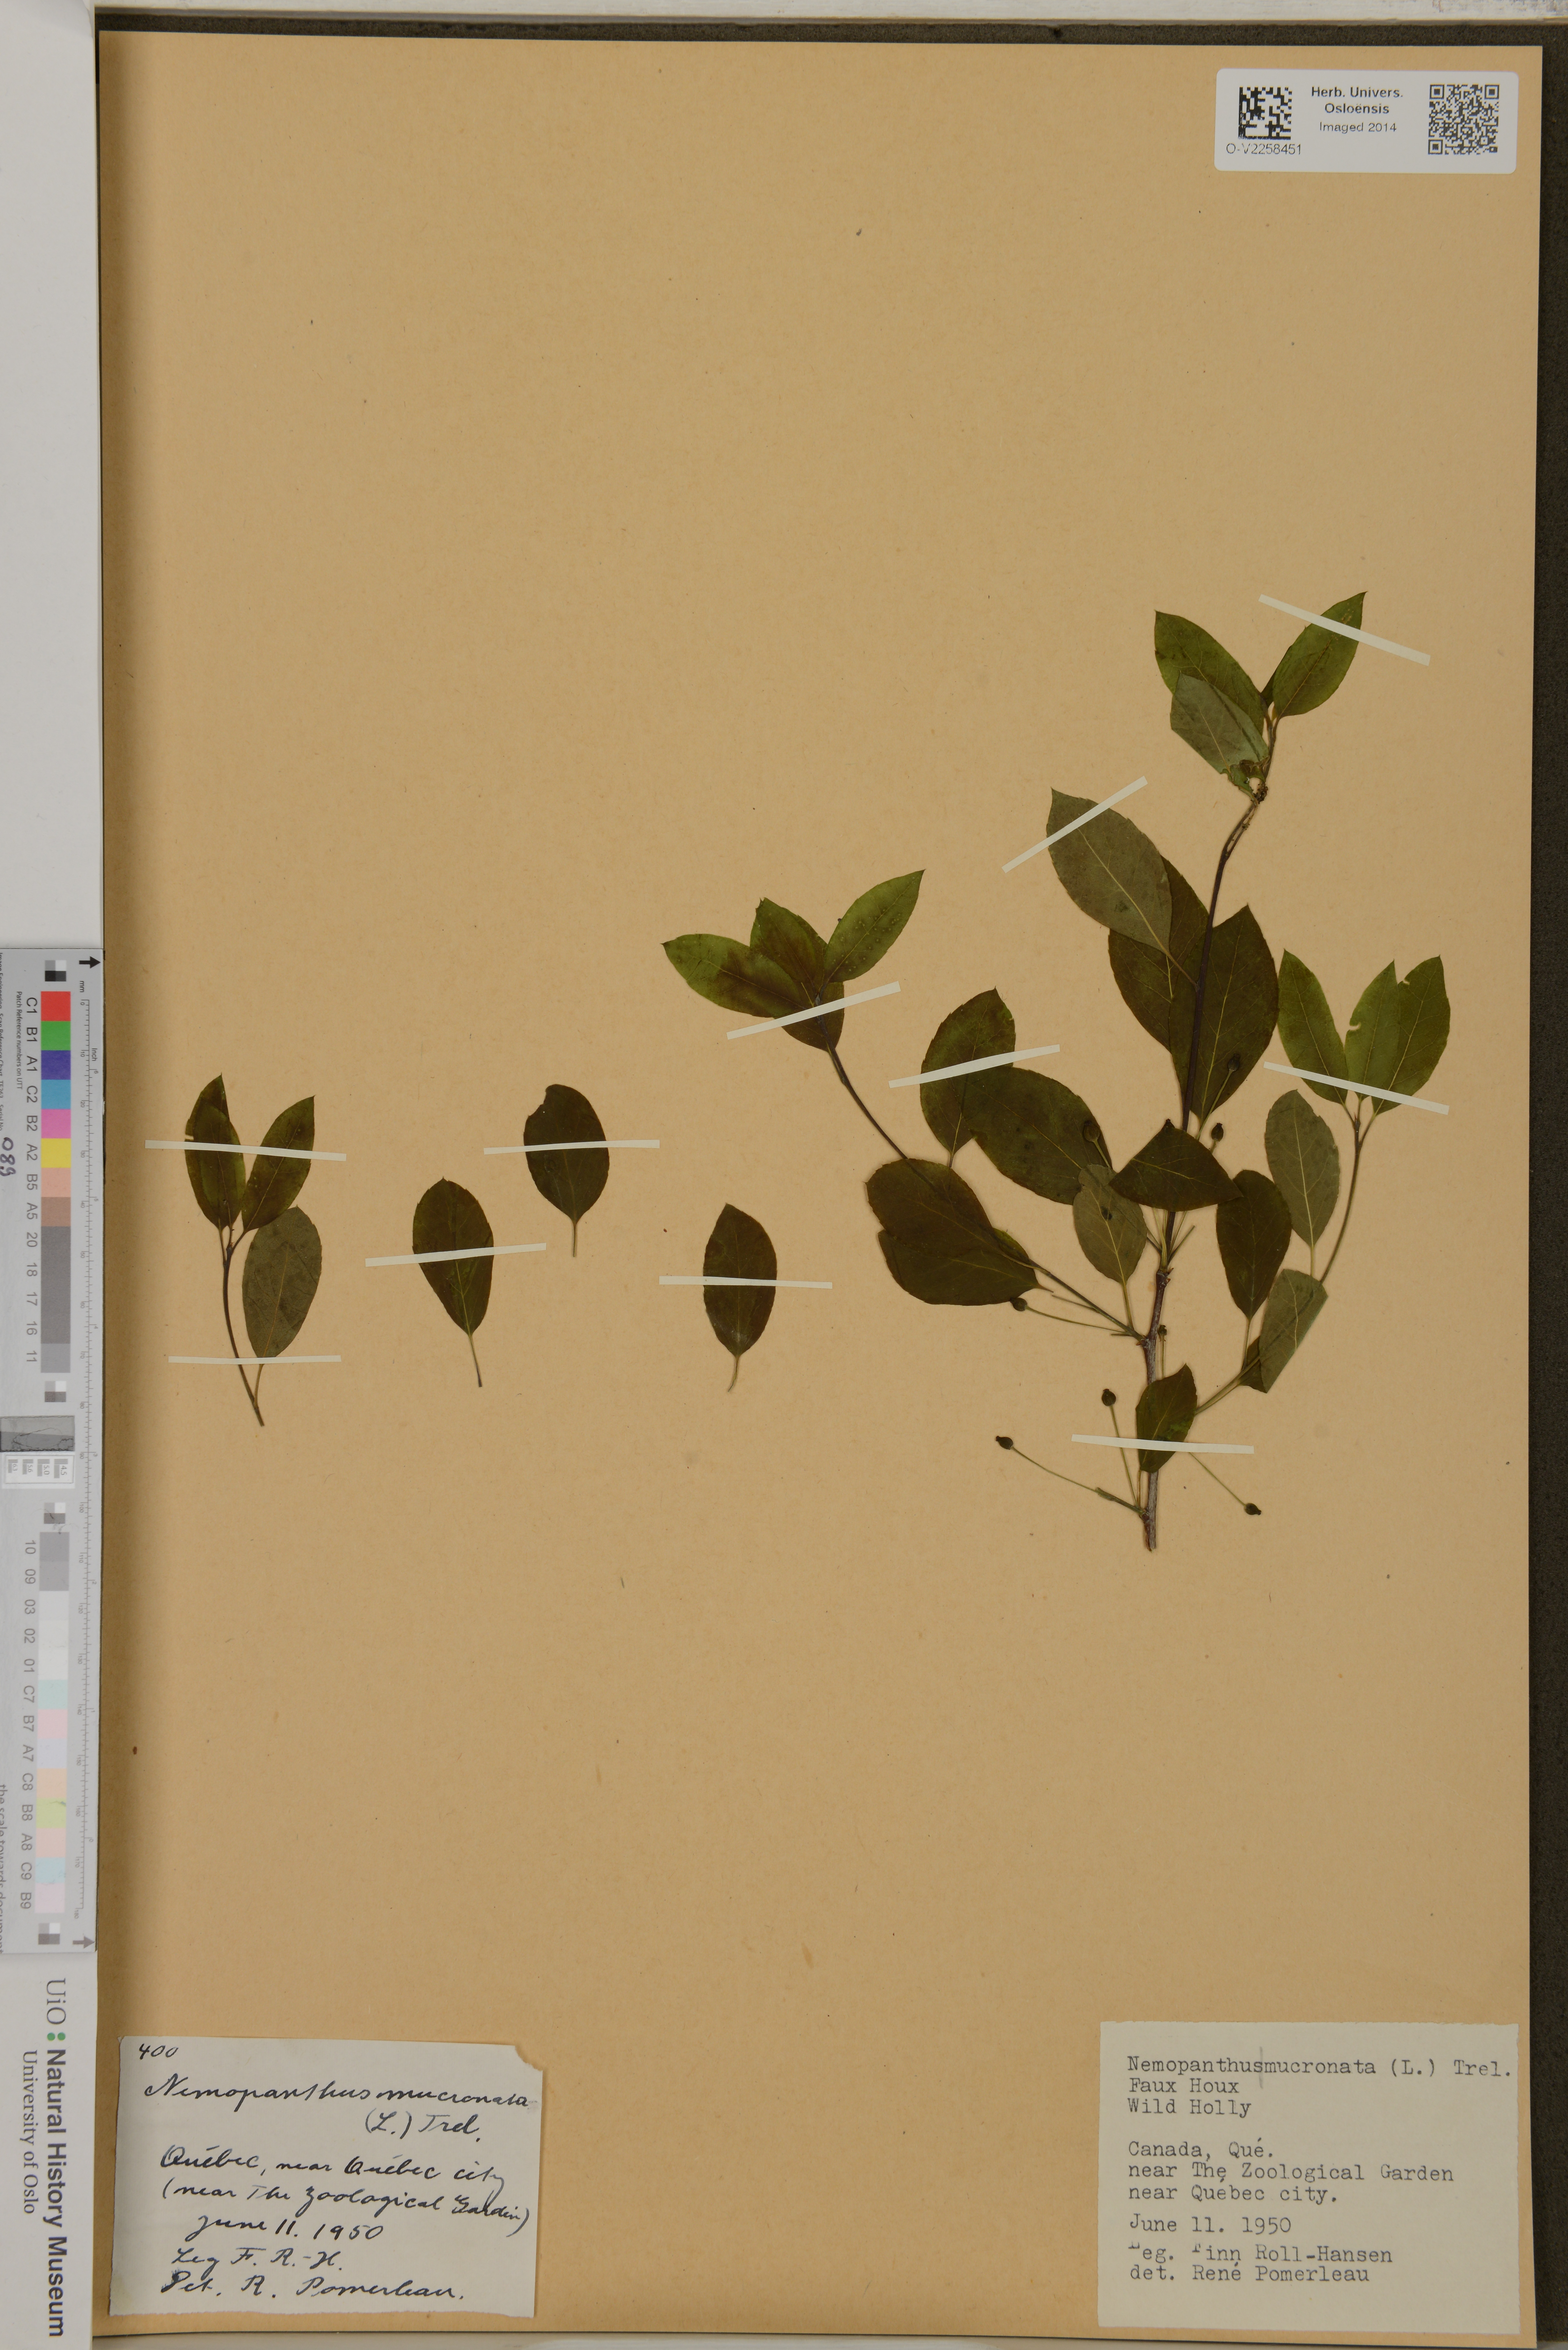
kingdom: Plantae
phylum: Tracheophyta
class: Magnoliopsida
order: Aquifoliales
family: Aquifoliaceae
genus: Ilex
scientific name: Ilex mucronata
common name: Catberry
